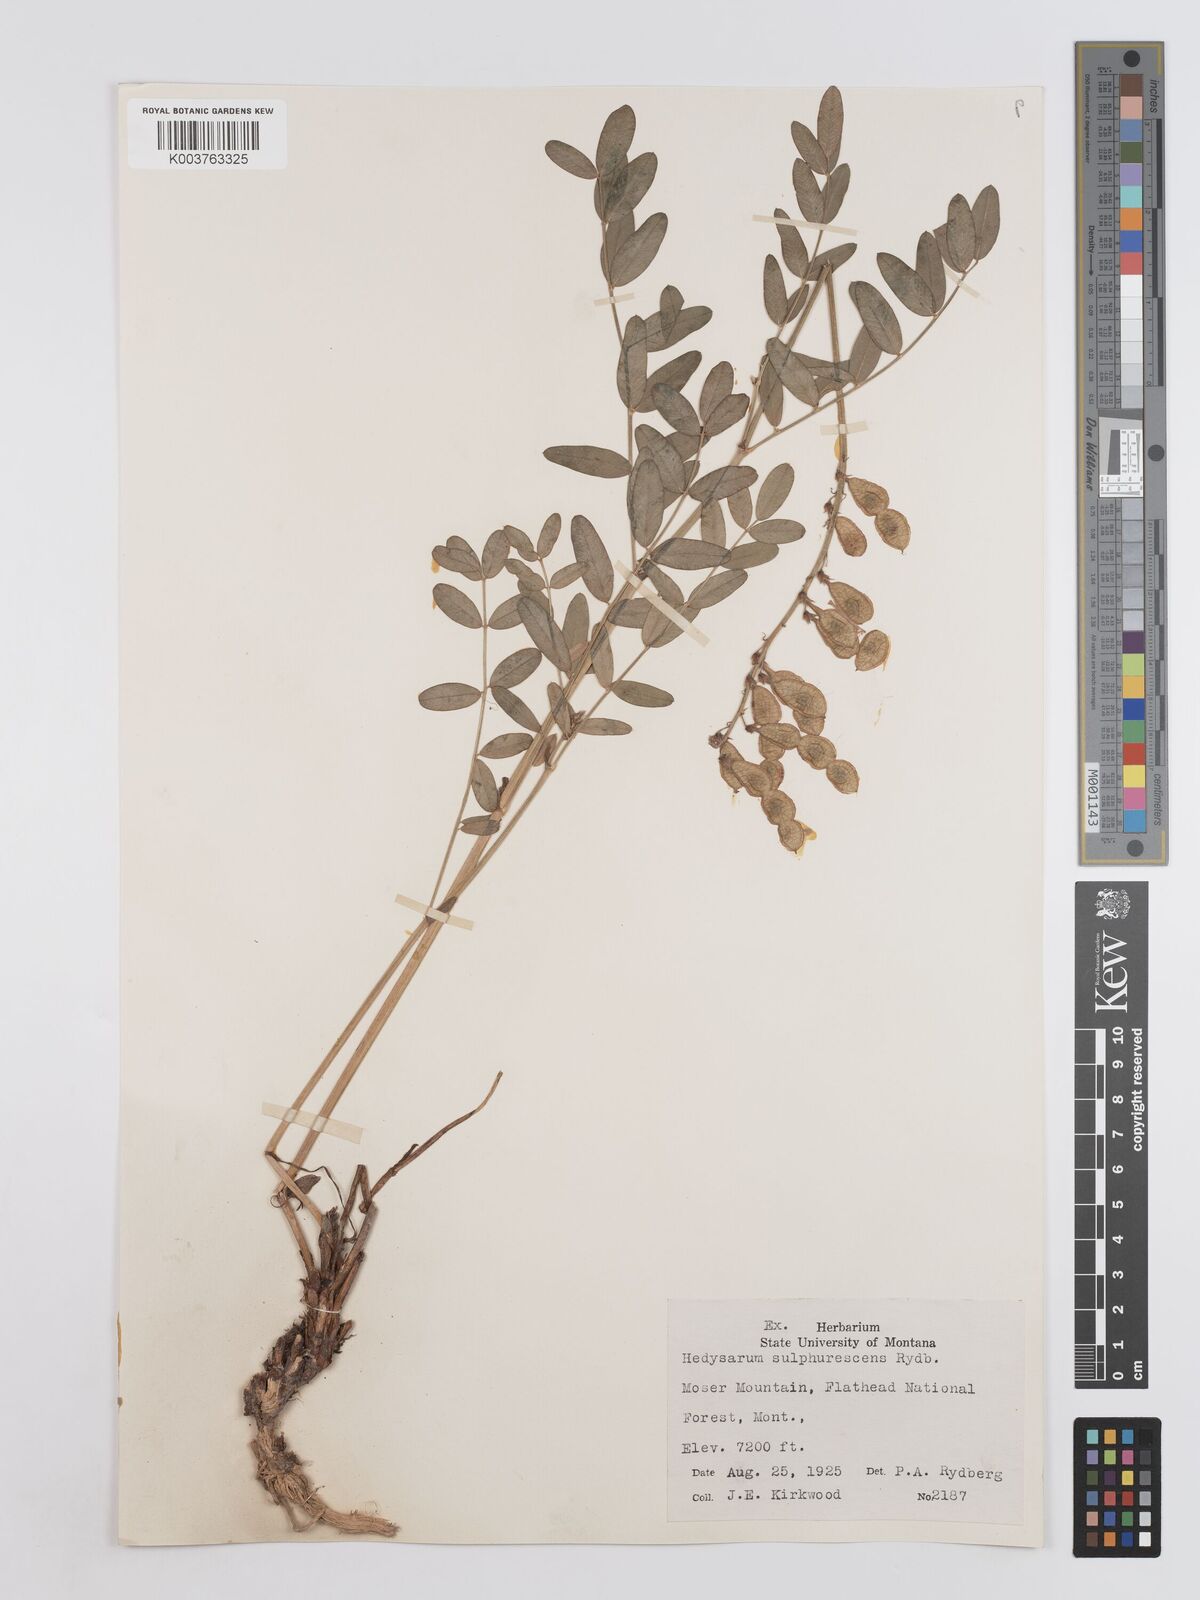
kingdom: Plantae
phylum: Tracheophyta
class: Magnoliopsida
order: Fabales
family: Fabaceae
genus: Hedysarum
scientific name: Hedysarum sulphurescens
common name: Sulphur hedysarum
